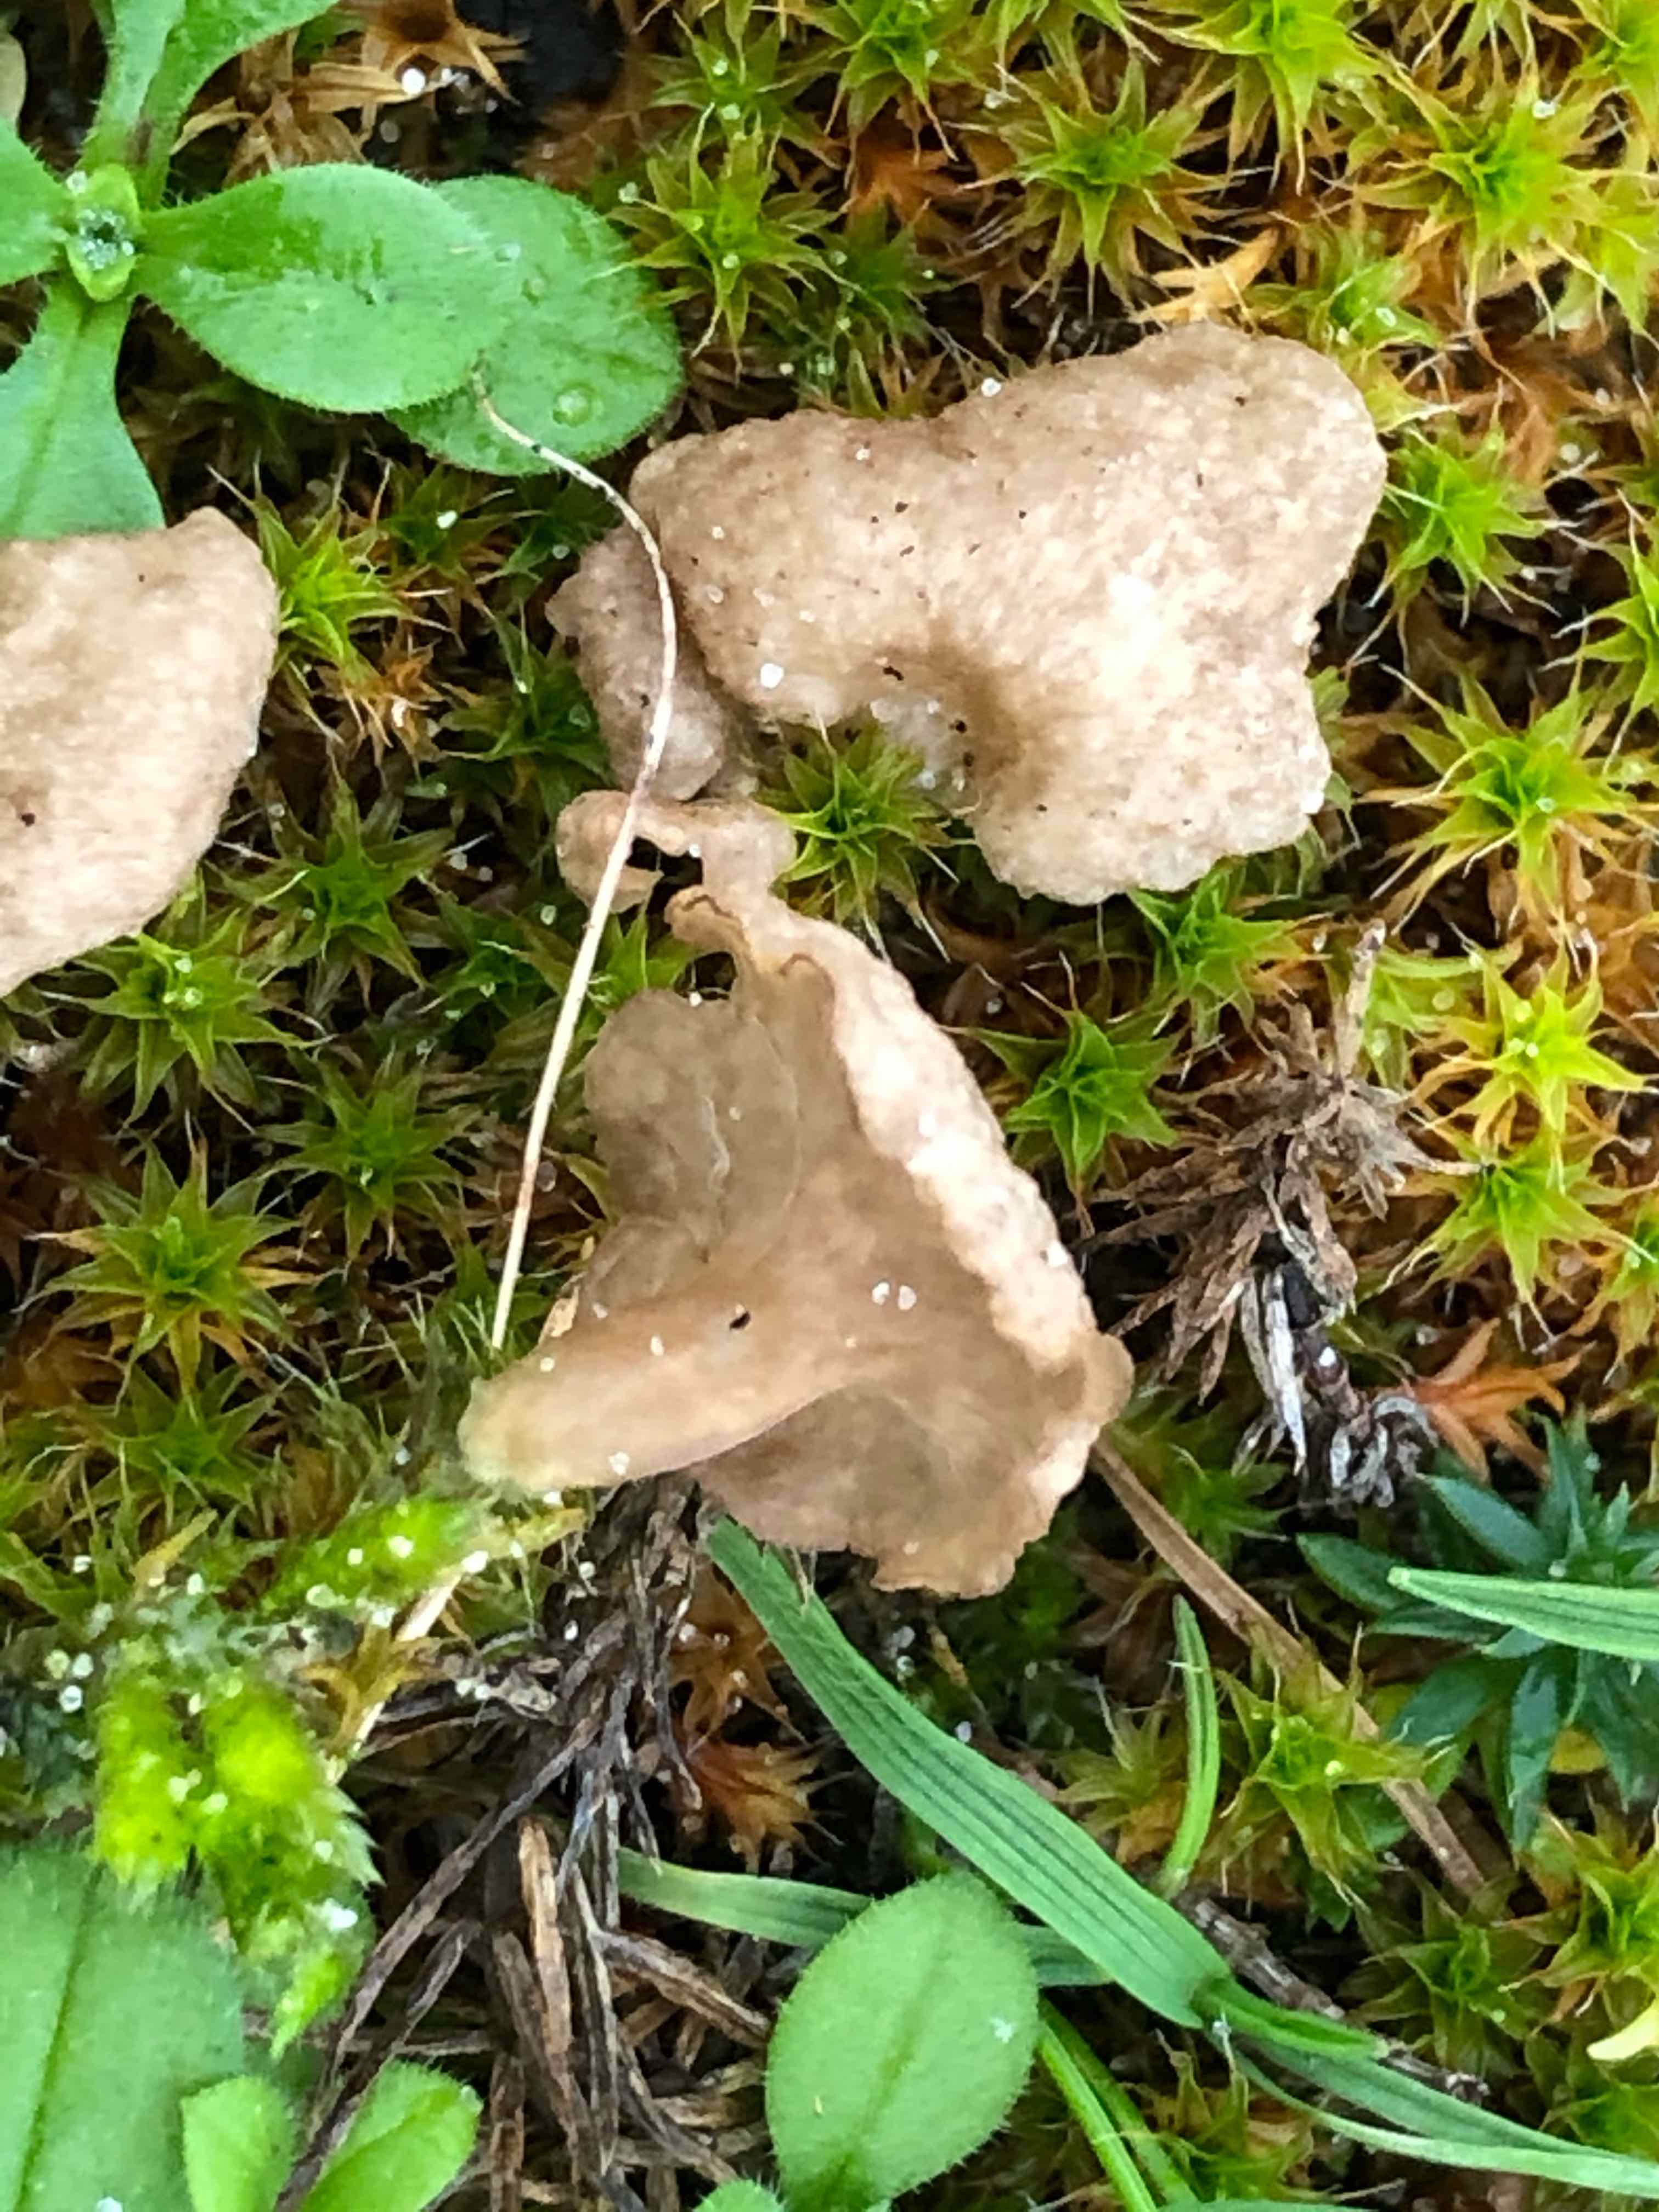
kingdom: Fungi
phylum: Basidiomycota
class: Agaricomycetes
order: Agaricales
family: Hygrophoraceae
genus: Arrhenia
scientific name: Arrhenia spathulata
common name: skæv fontænehat
